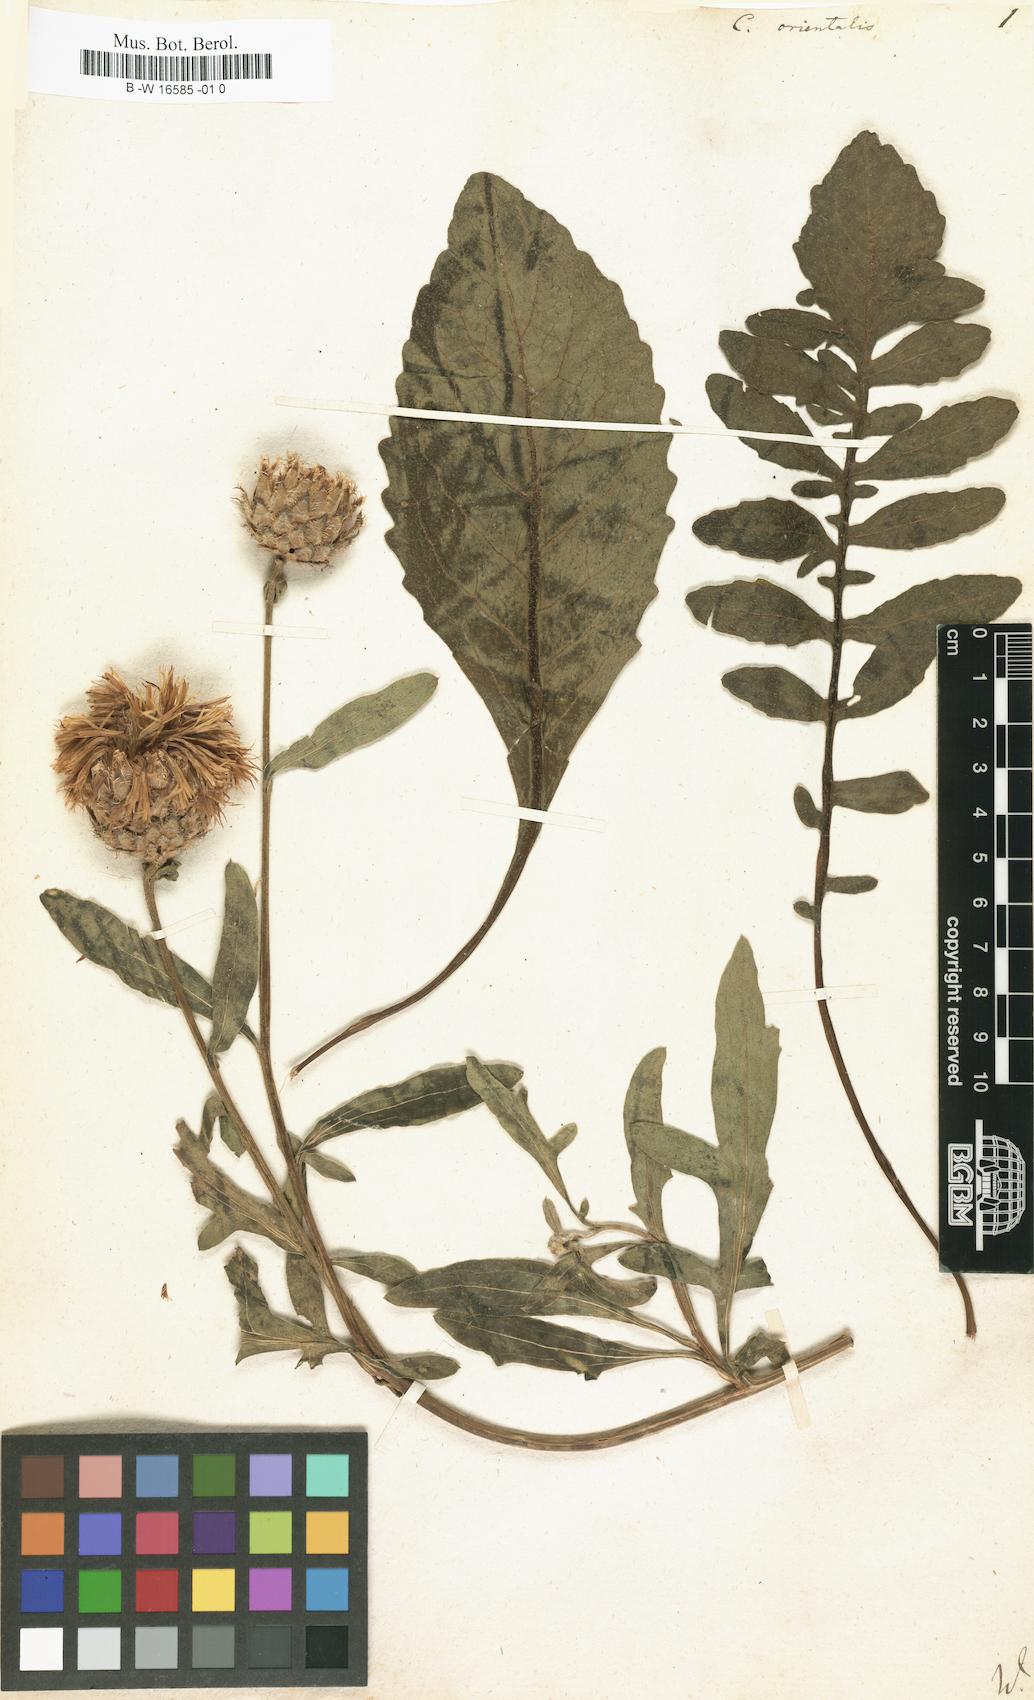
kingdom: Plantae
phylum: Tracheophyta
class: Magnoliopsida
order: Asterales
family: Asteraceae
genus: Centaurea
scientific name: Centaurea orientalis
